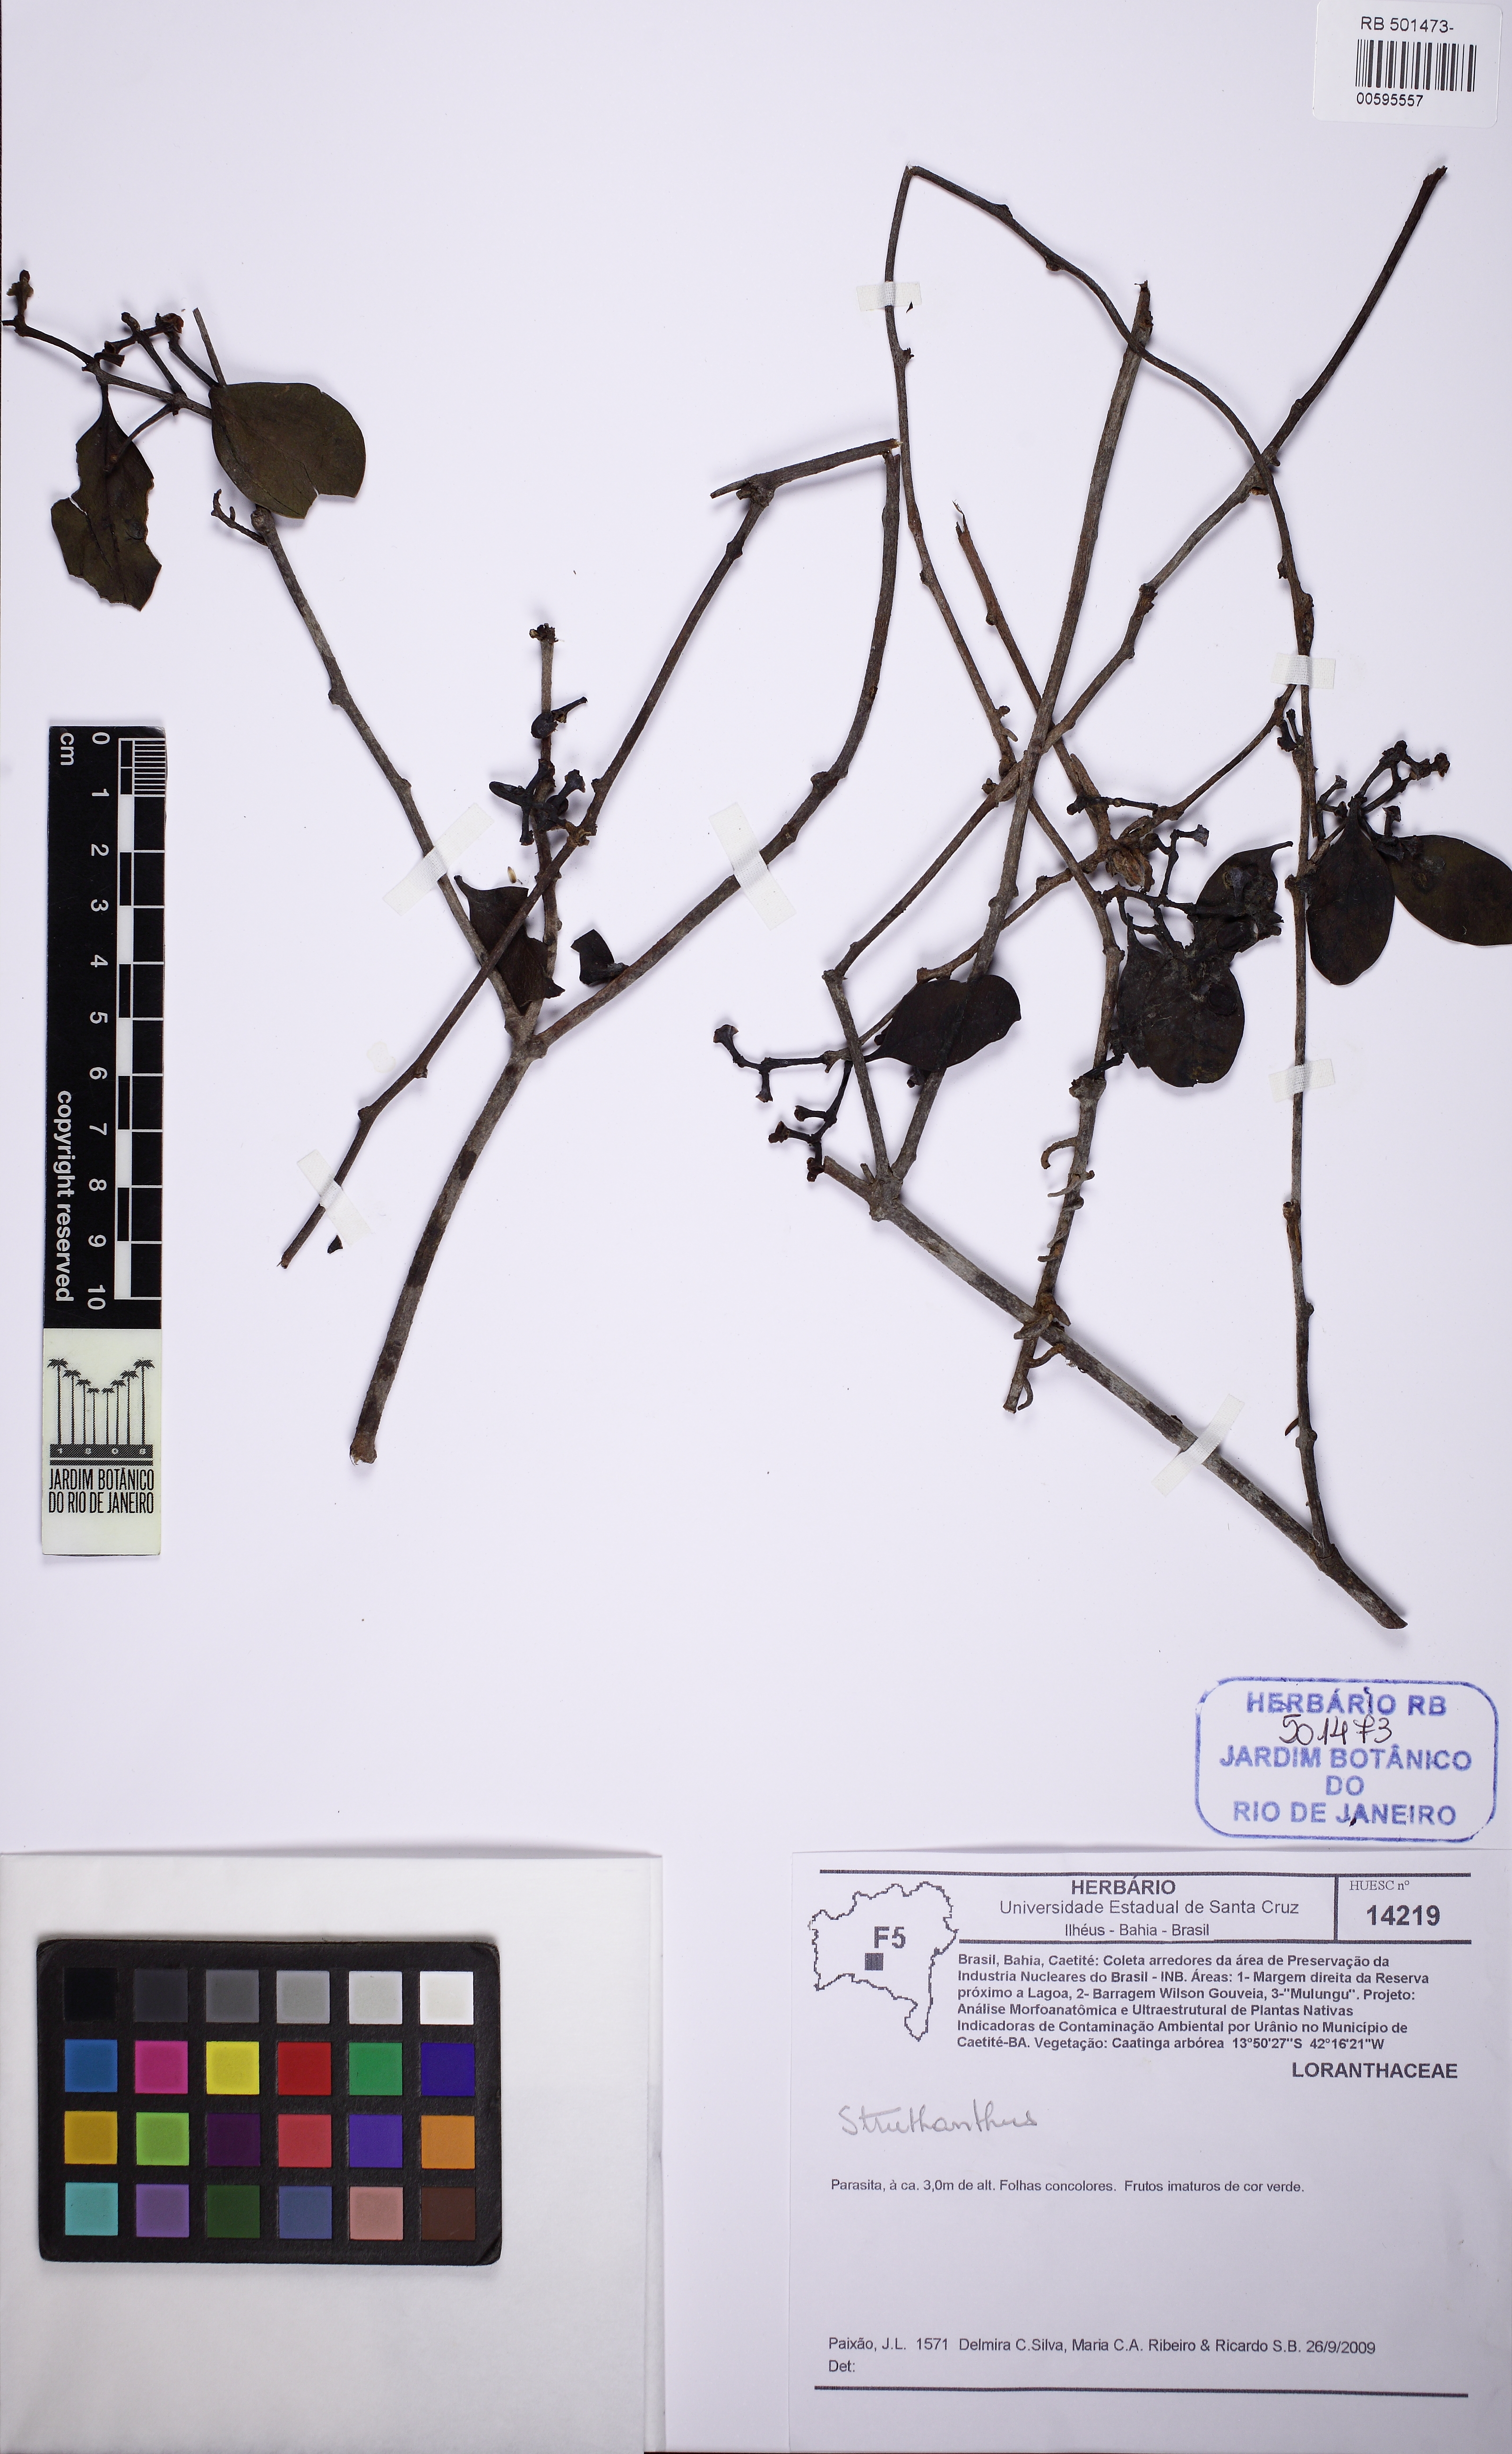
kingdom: Plantae
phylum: Tracheophyta
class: Magnoliopsida
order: Santalales
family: Loranthaceae
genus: Struthanthus
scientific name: Struthanthus
